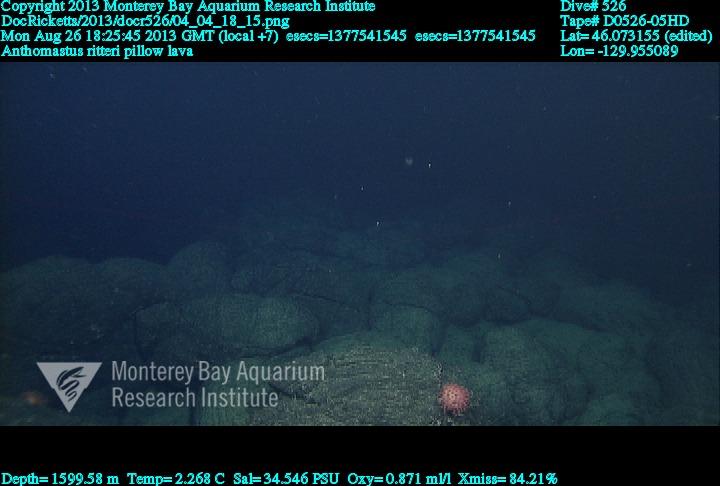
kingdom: Animalia
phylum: Cnidaria
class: Anthozoa
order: Scleralcyonacea
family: Coralliidae
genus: Heteropolypus
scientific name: Heteropolypus ritteri
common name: Ritter's soft coral
